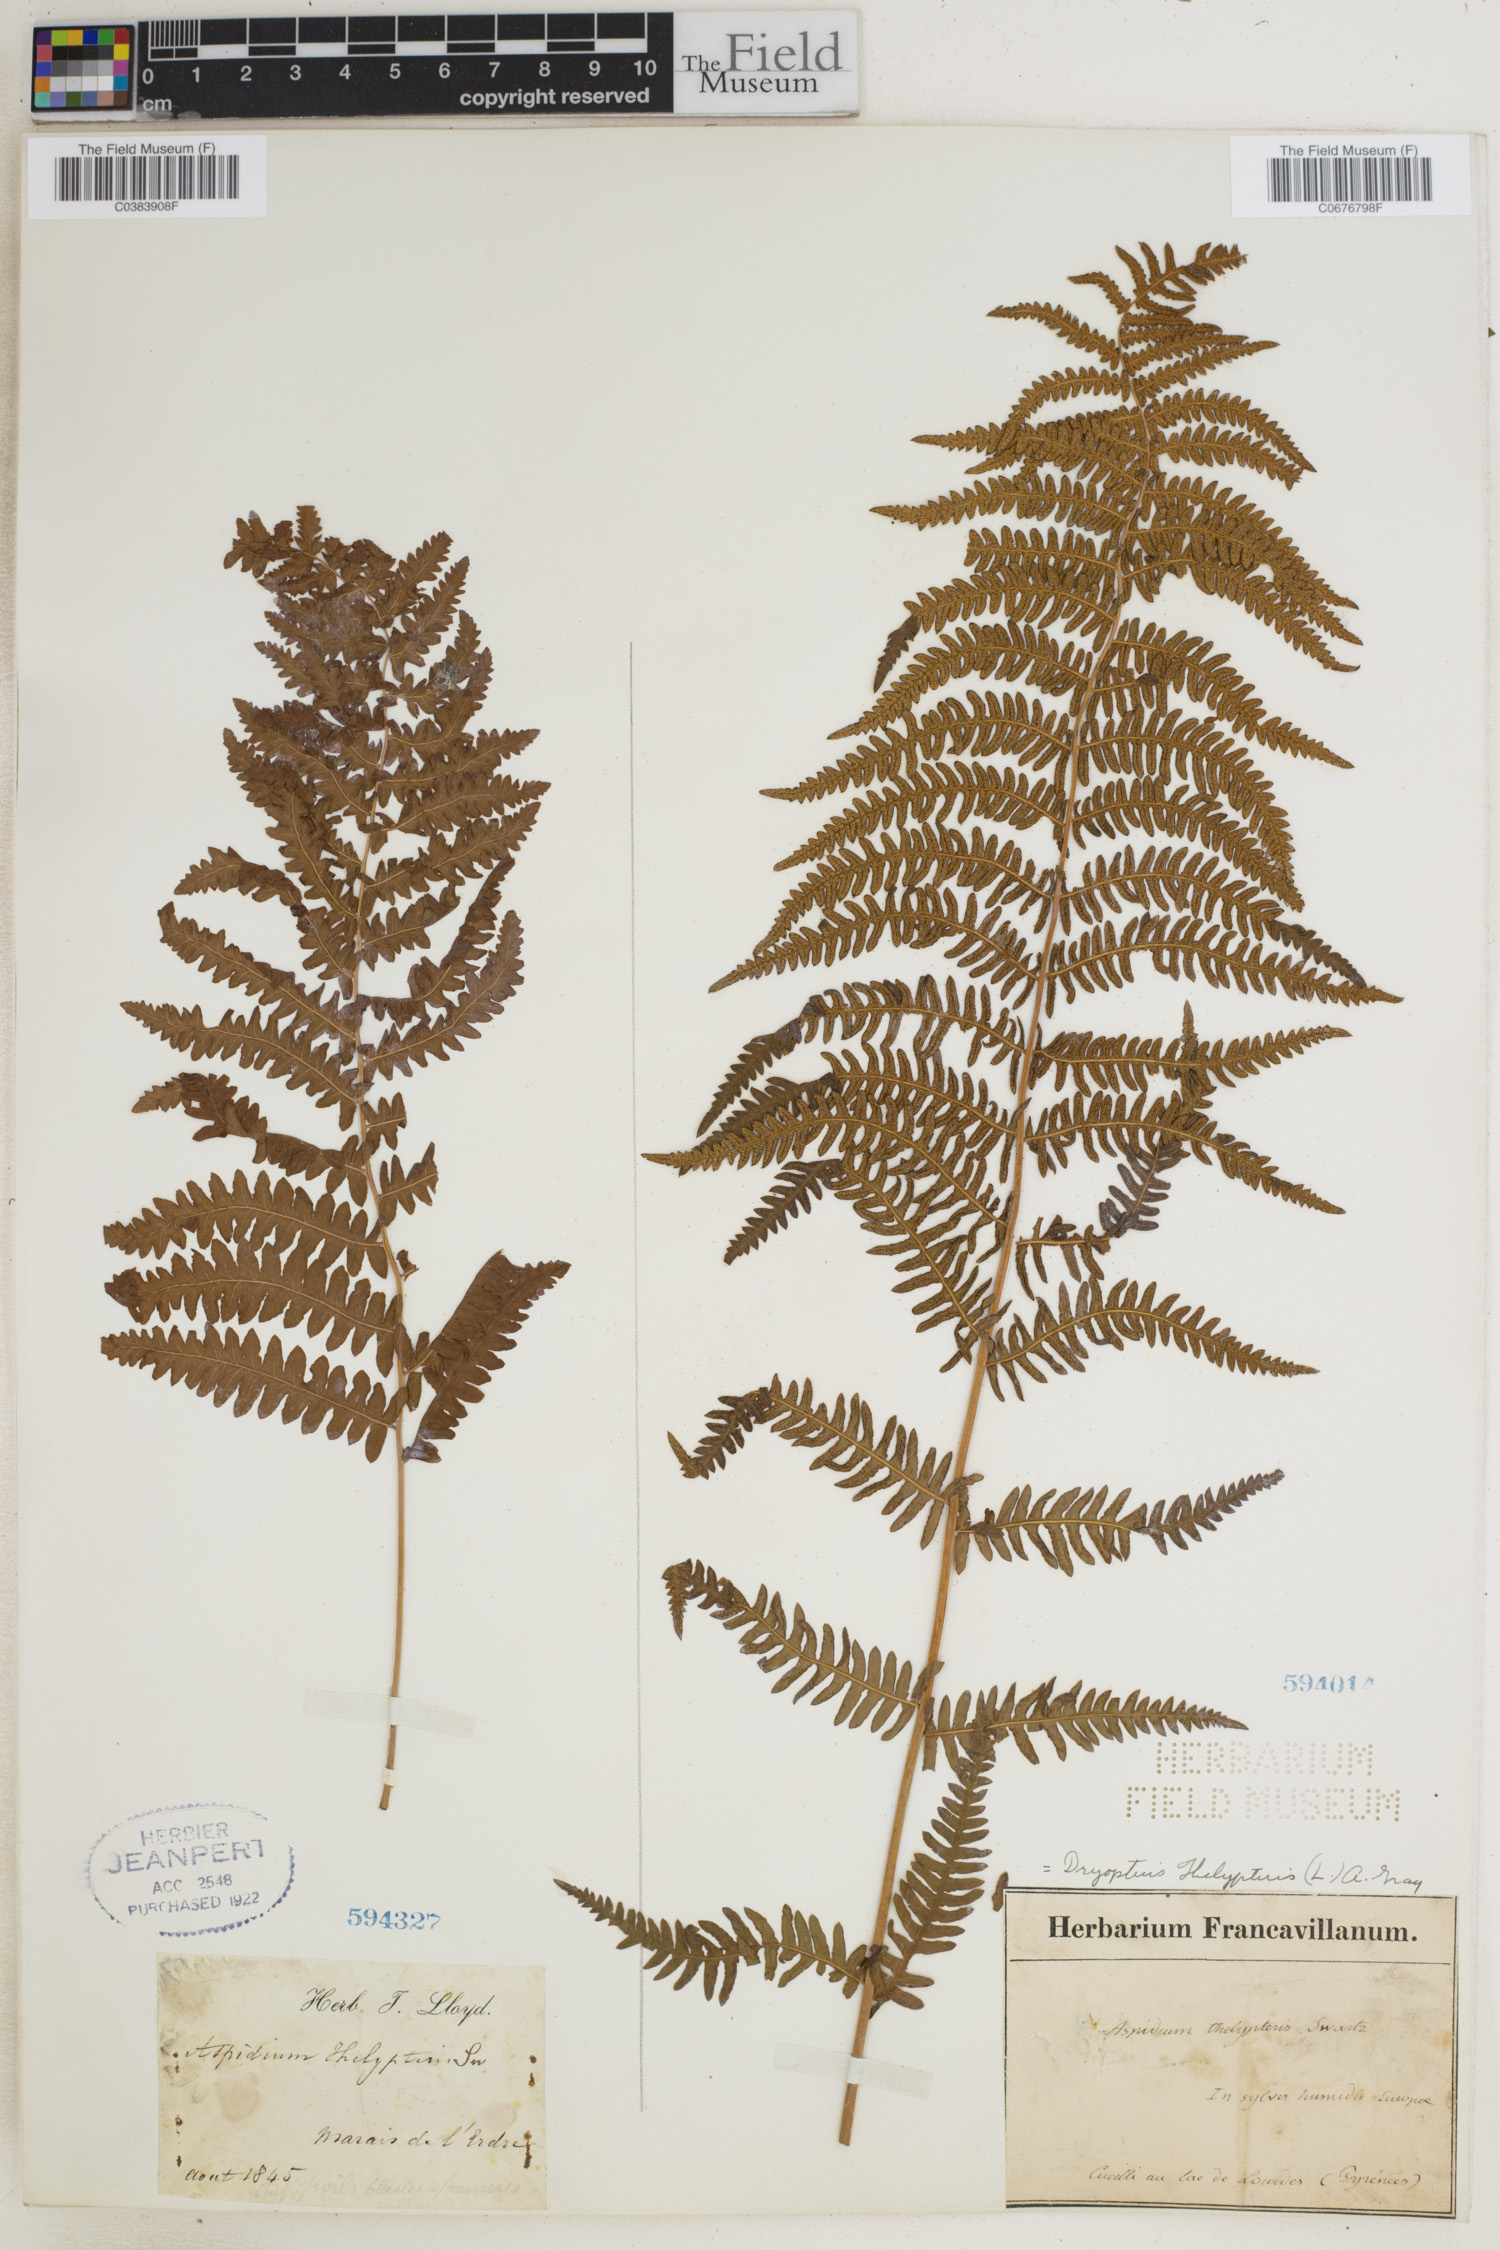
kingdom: Plantae
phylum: Tracheophyta
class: Polypodiopsida
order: Polypodiales
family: Thelypteridaceae
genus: Thelypteris
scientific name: Thelypteris palustris
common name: Marsh fern
